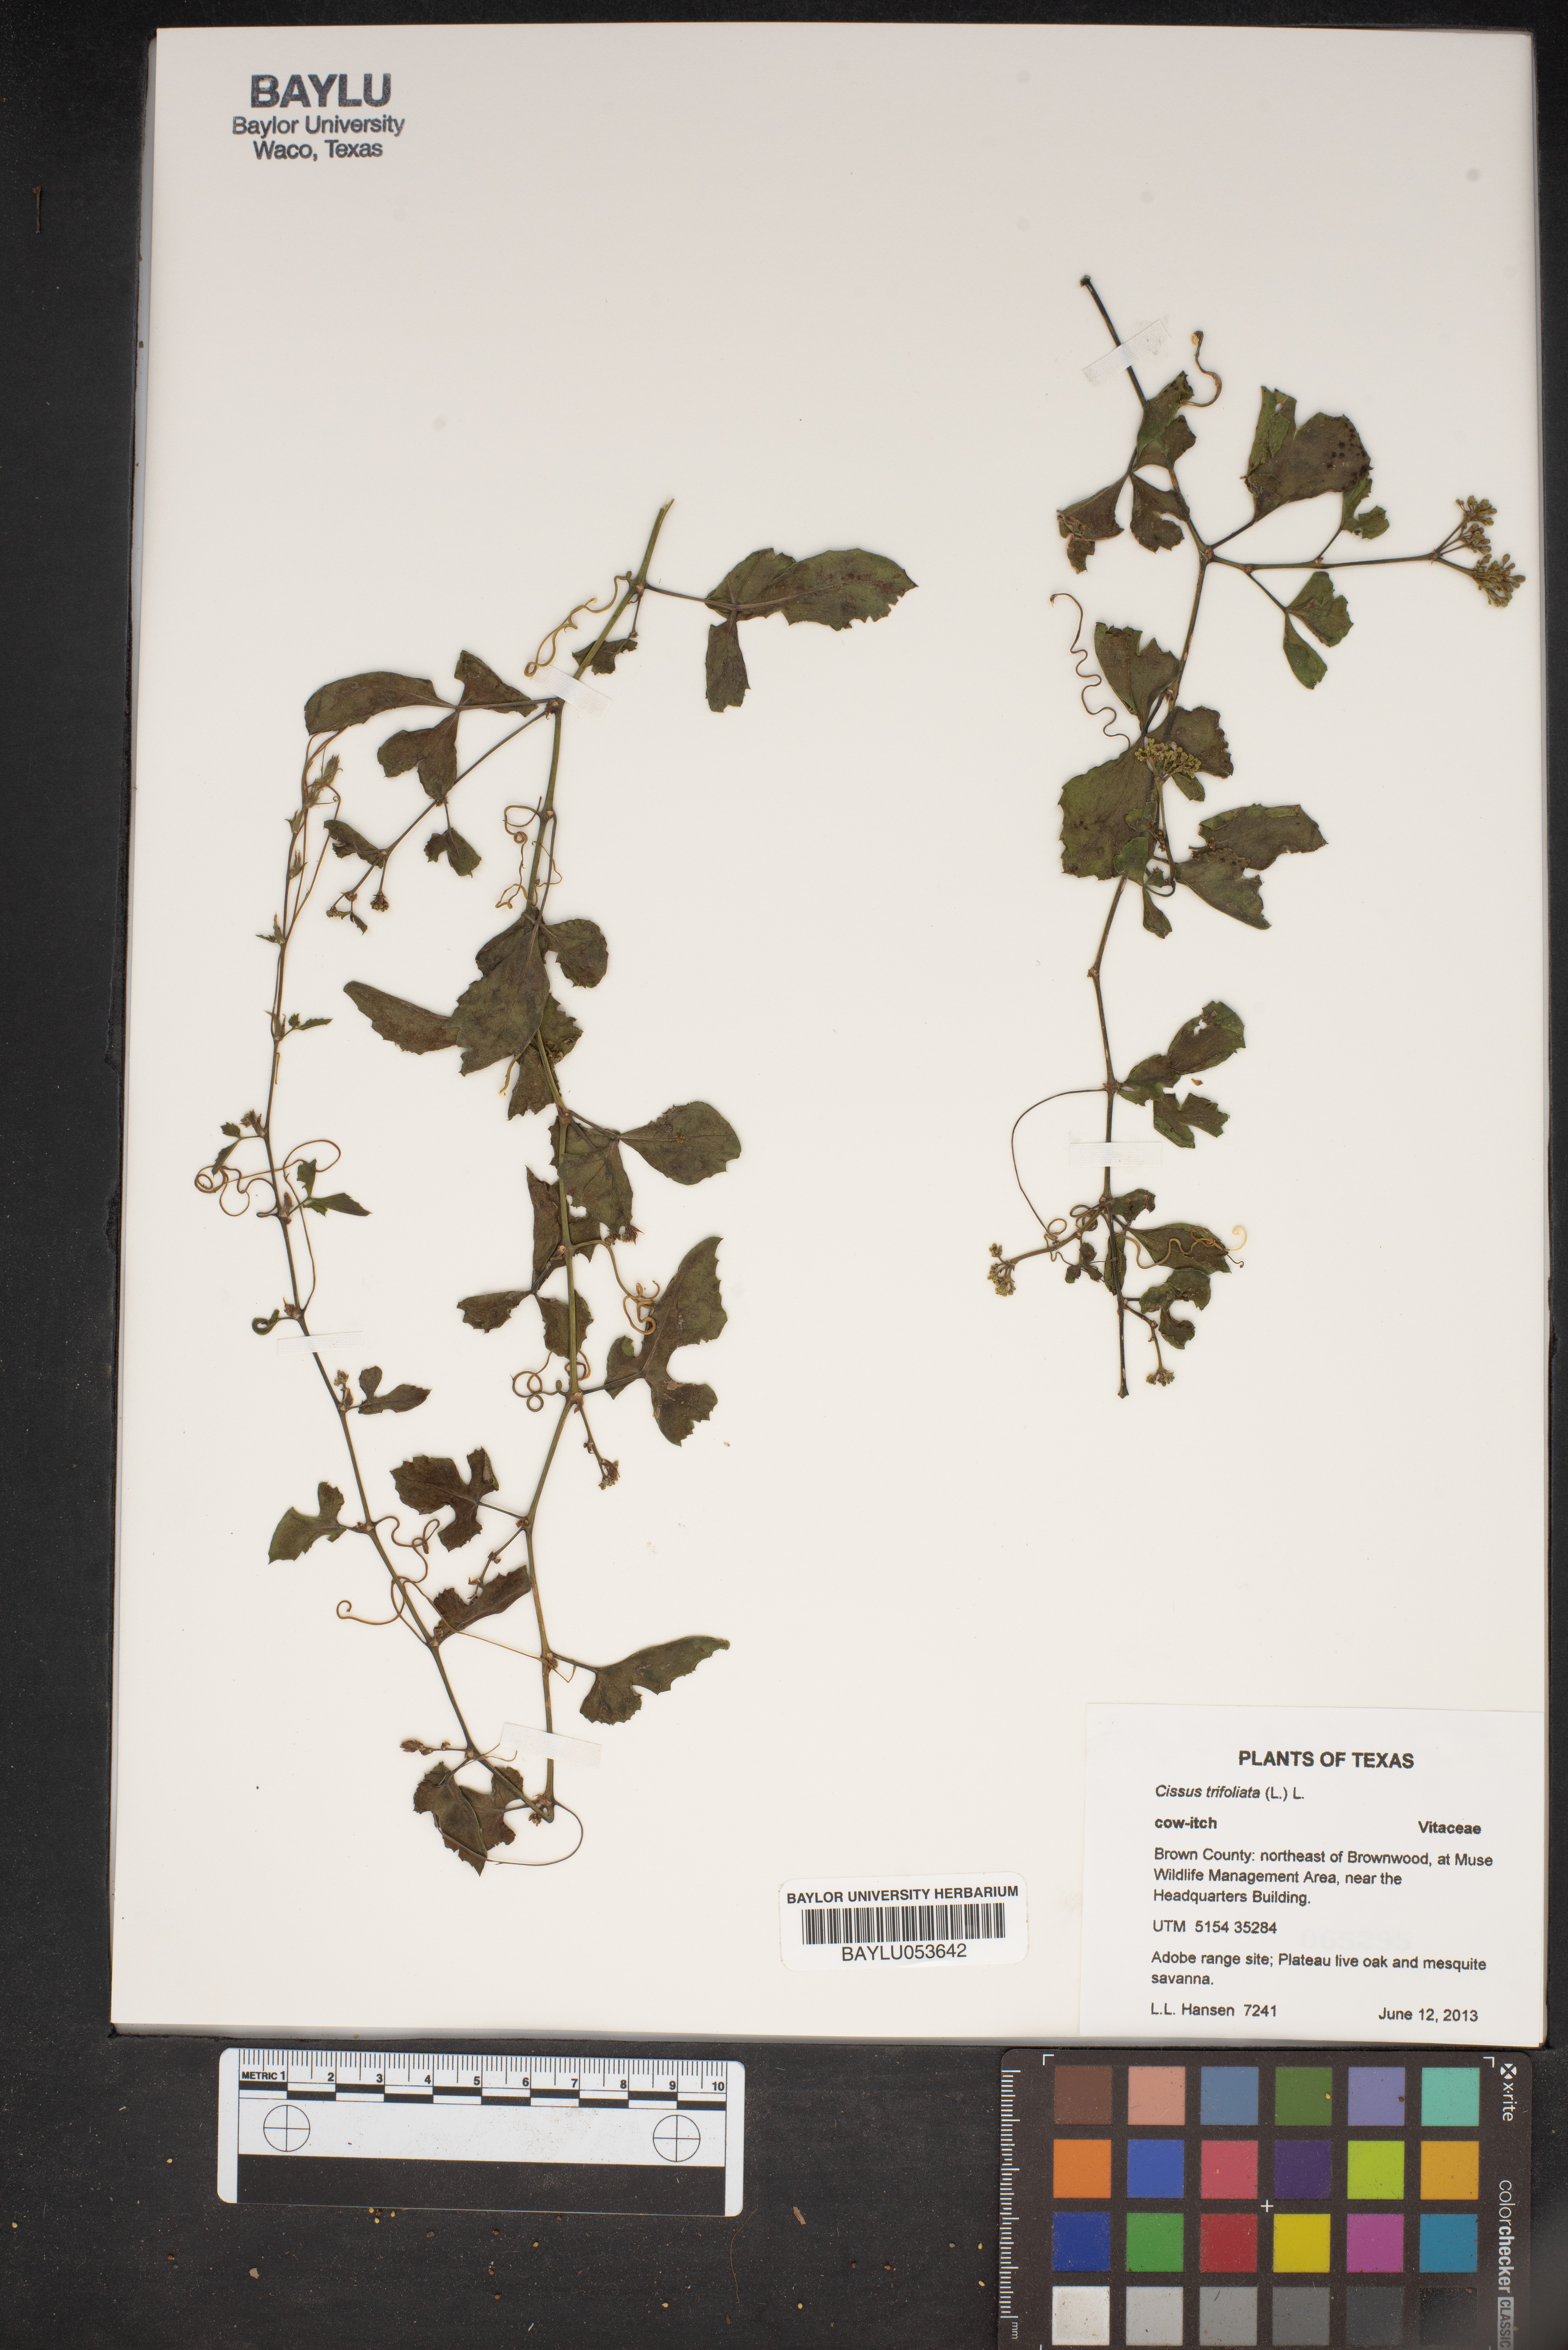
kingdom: Plantae
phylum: Tracheophyta
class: Magnoliopsida
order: Vitales
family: Vitaceae
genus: Cissus
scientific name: Cissus trifoliata
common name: Vine-sorrel
